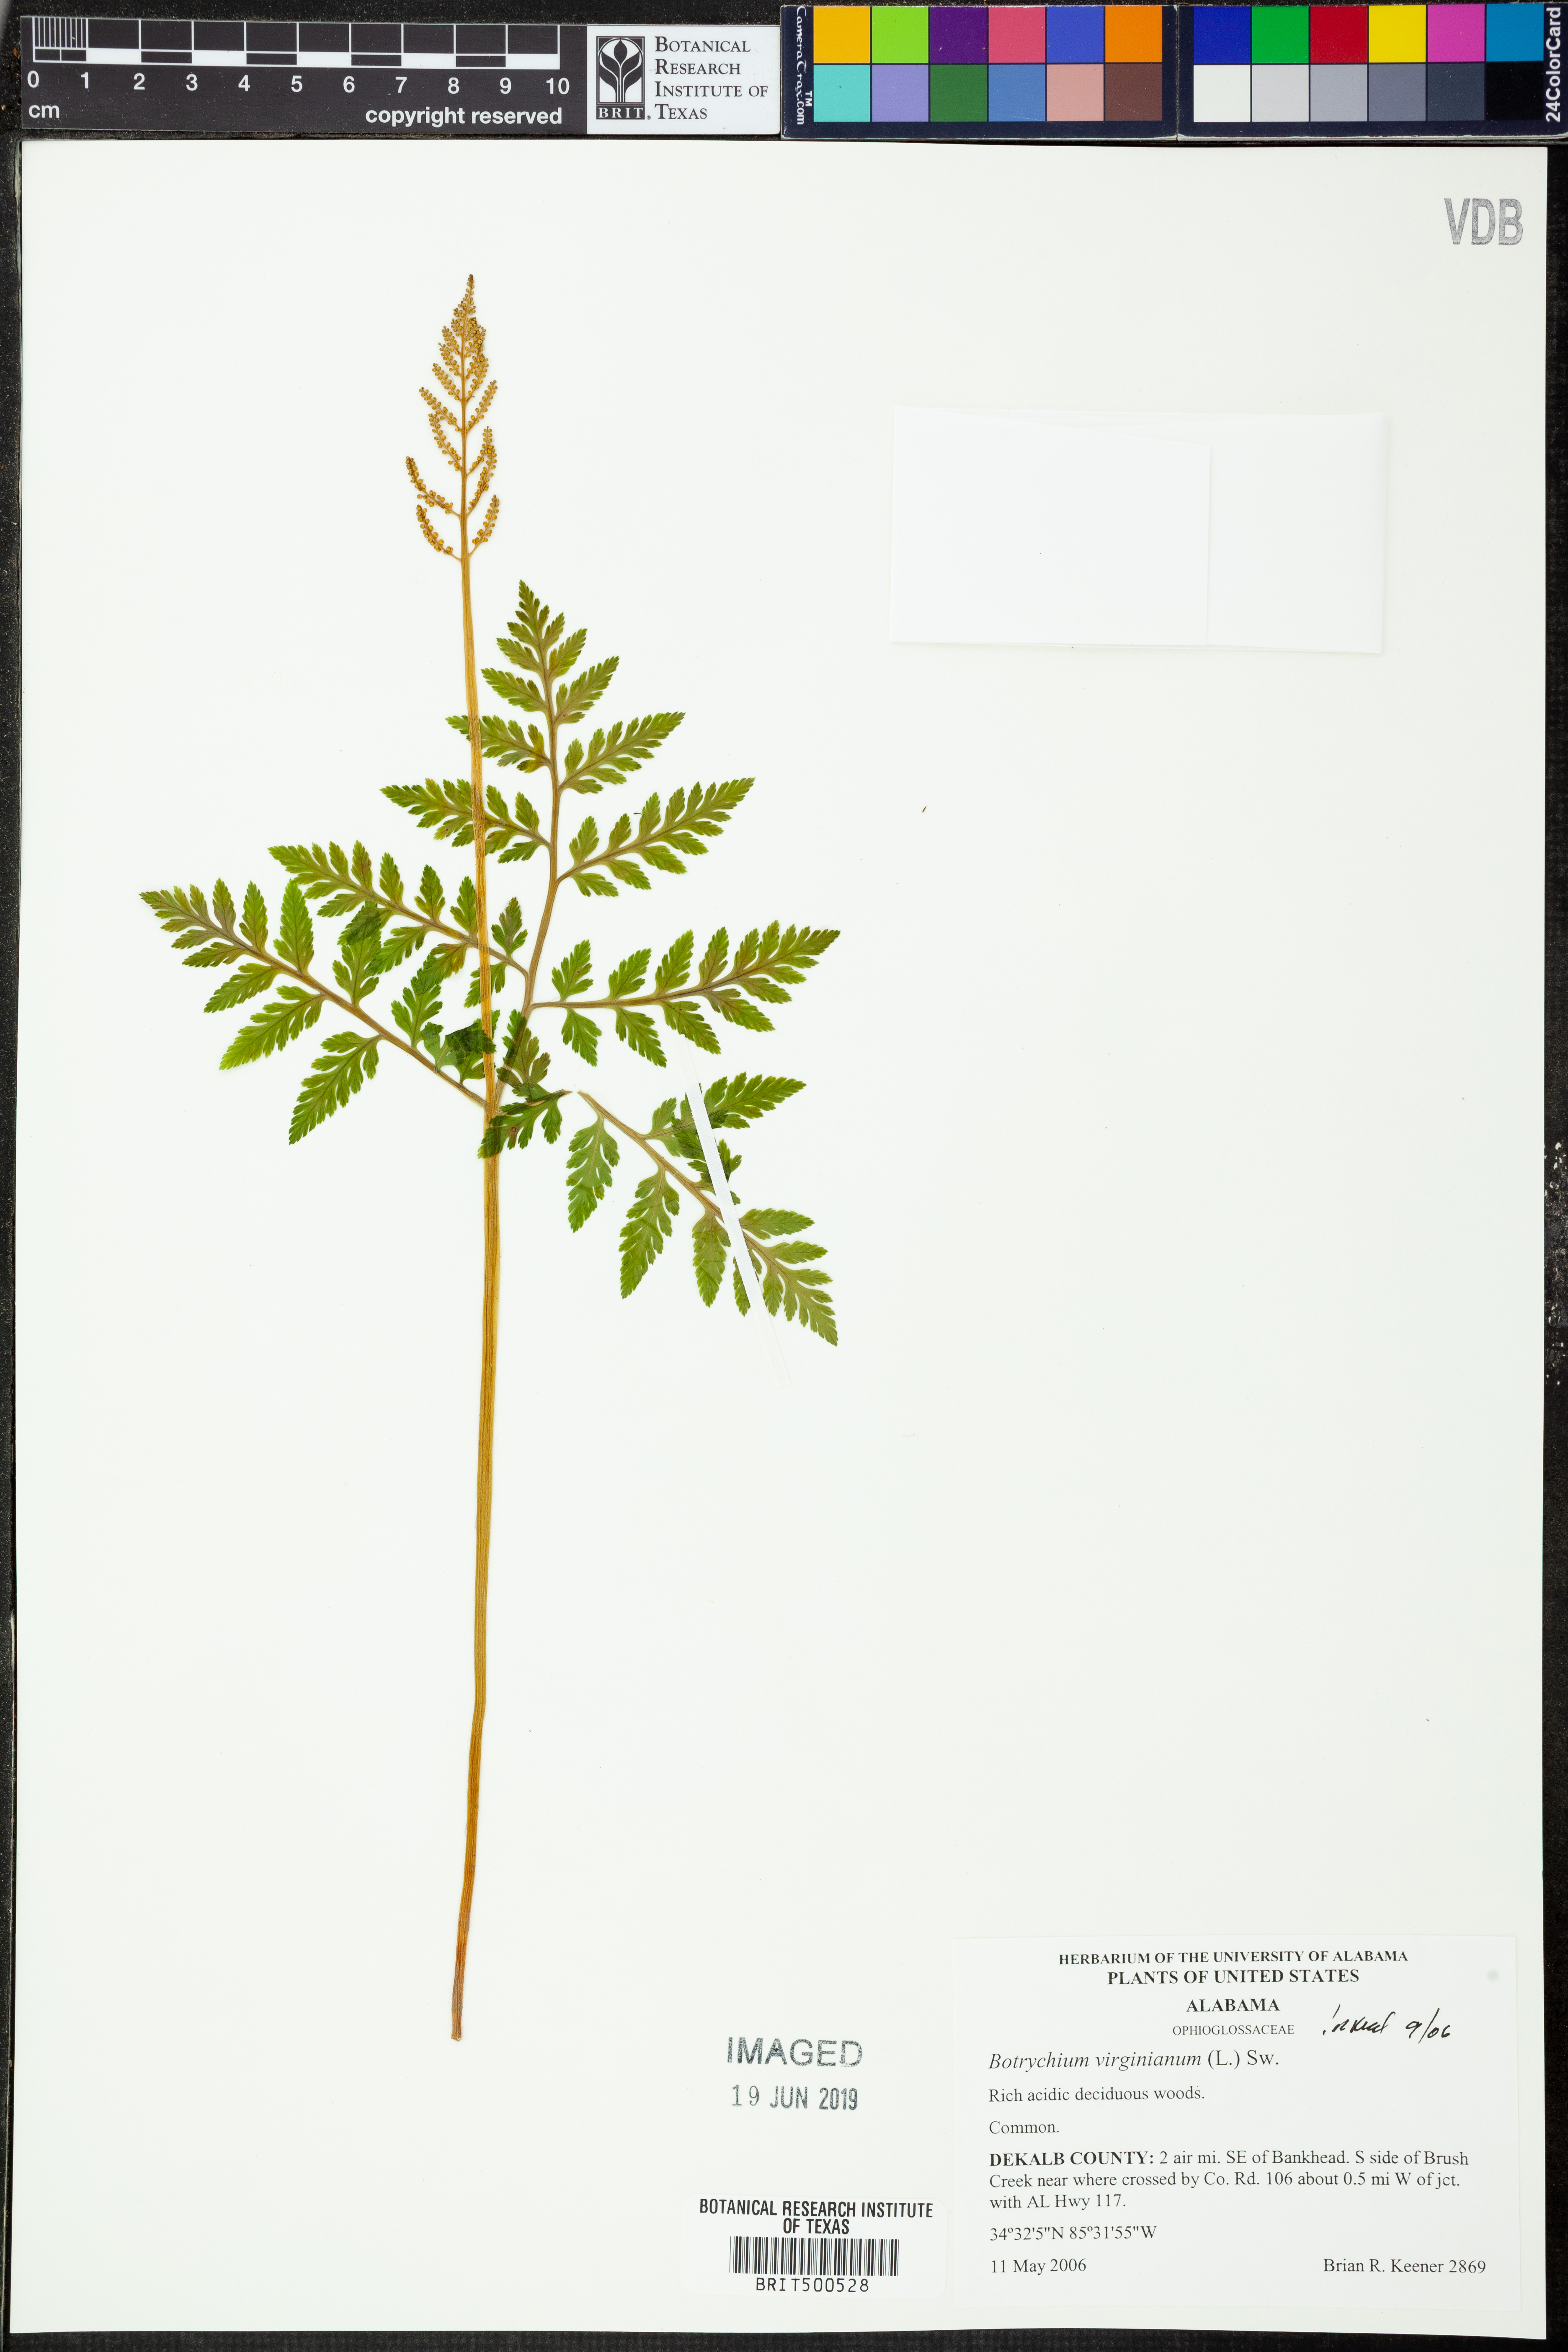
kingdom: Plantae
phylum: Tracheophyta
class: Polypodiopsida
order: Ophioglossales
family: Ophioglossaceae
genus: Botrypus
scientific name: Botrypus virginianus
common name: Common grapefern
